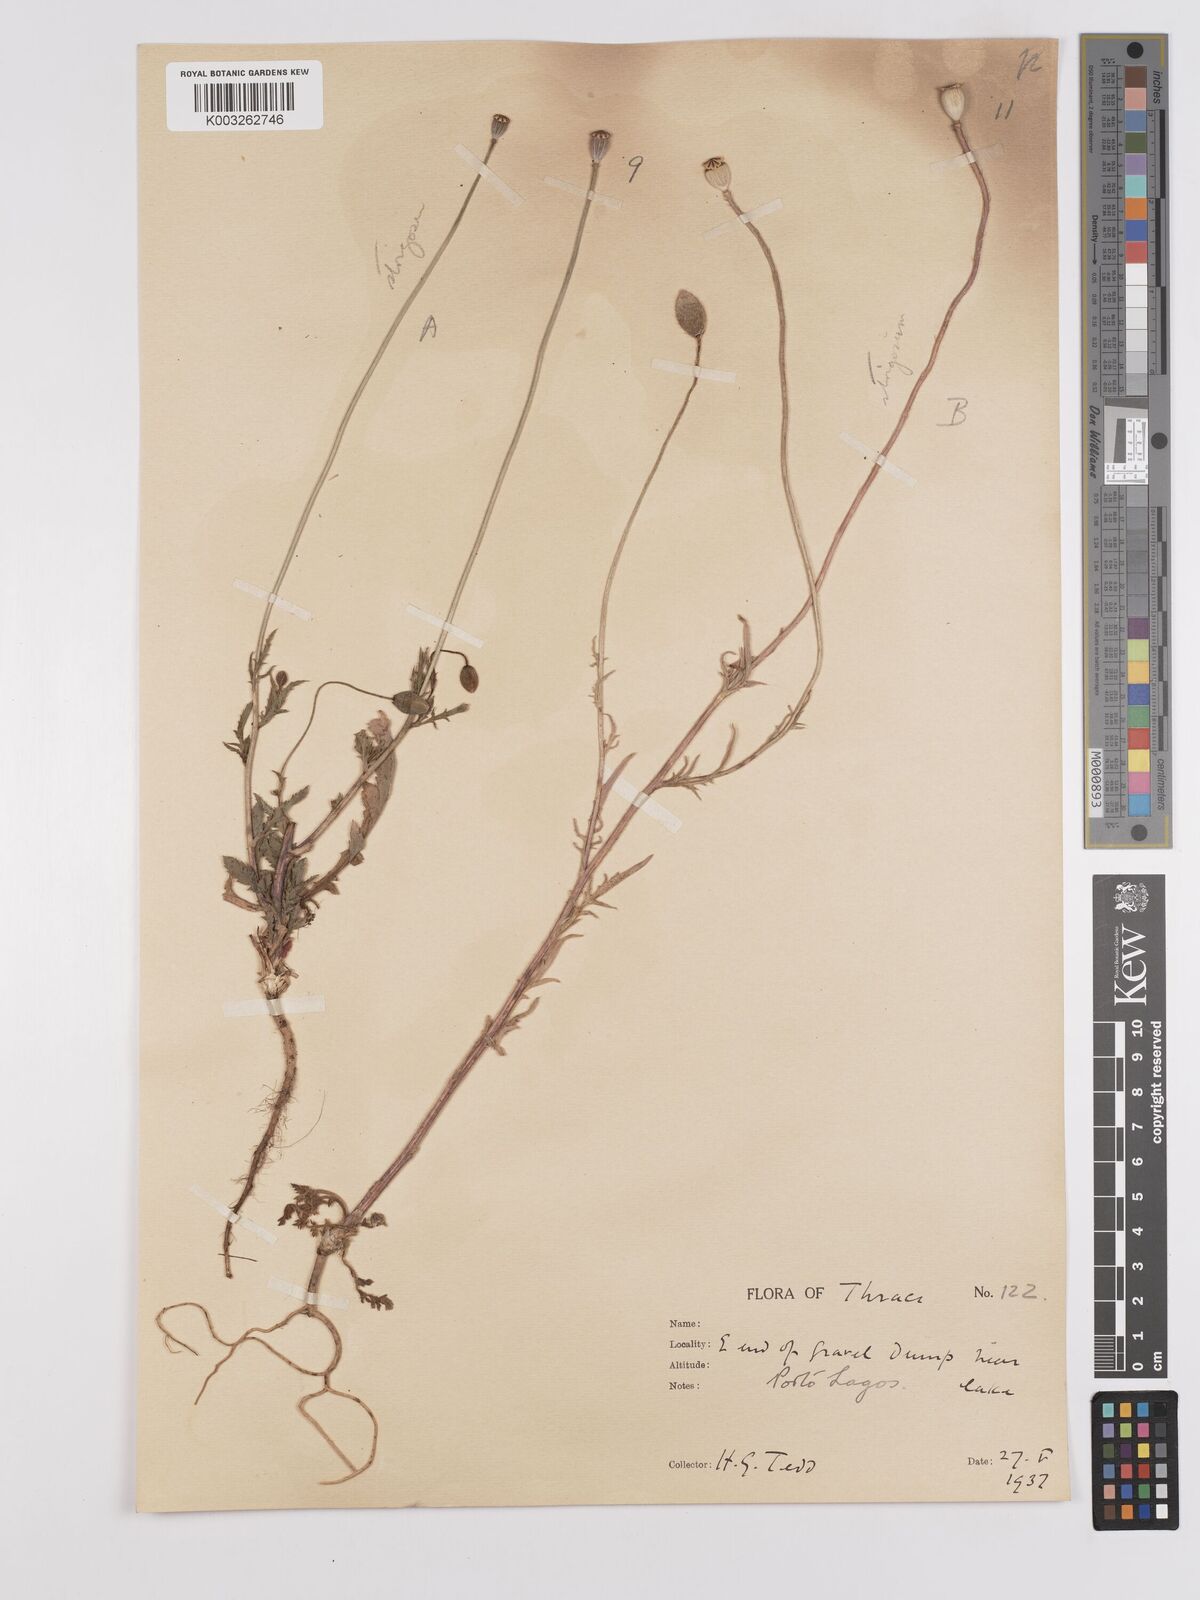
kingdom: Plantae
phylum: Tracheophyta
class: Magnoliopsida
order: Ranunculales
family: Papaveraceae
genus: Papaver
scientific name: Papaver
